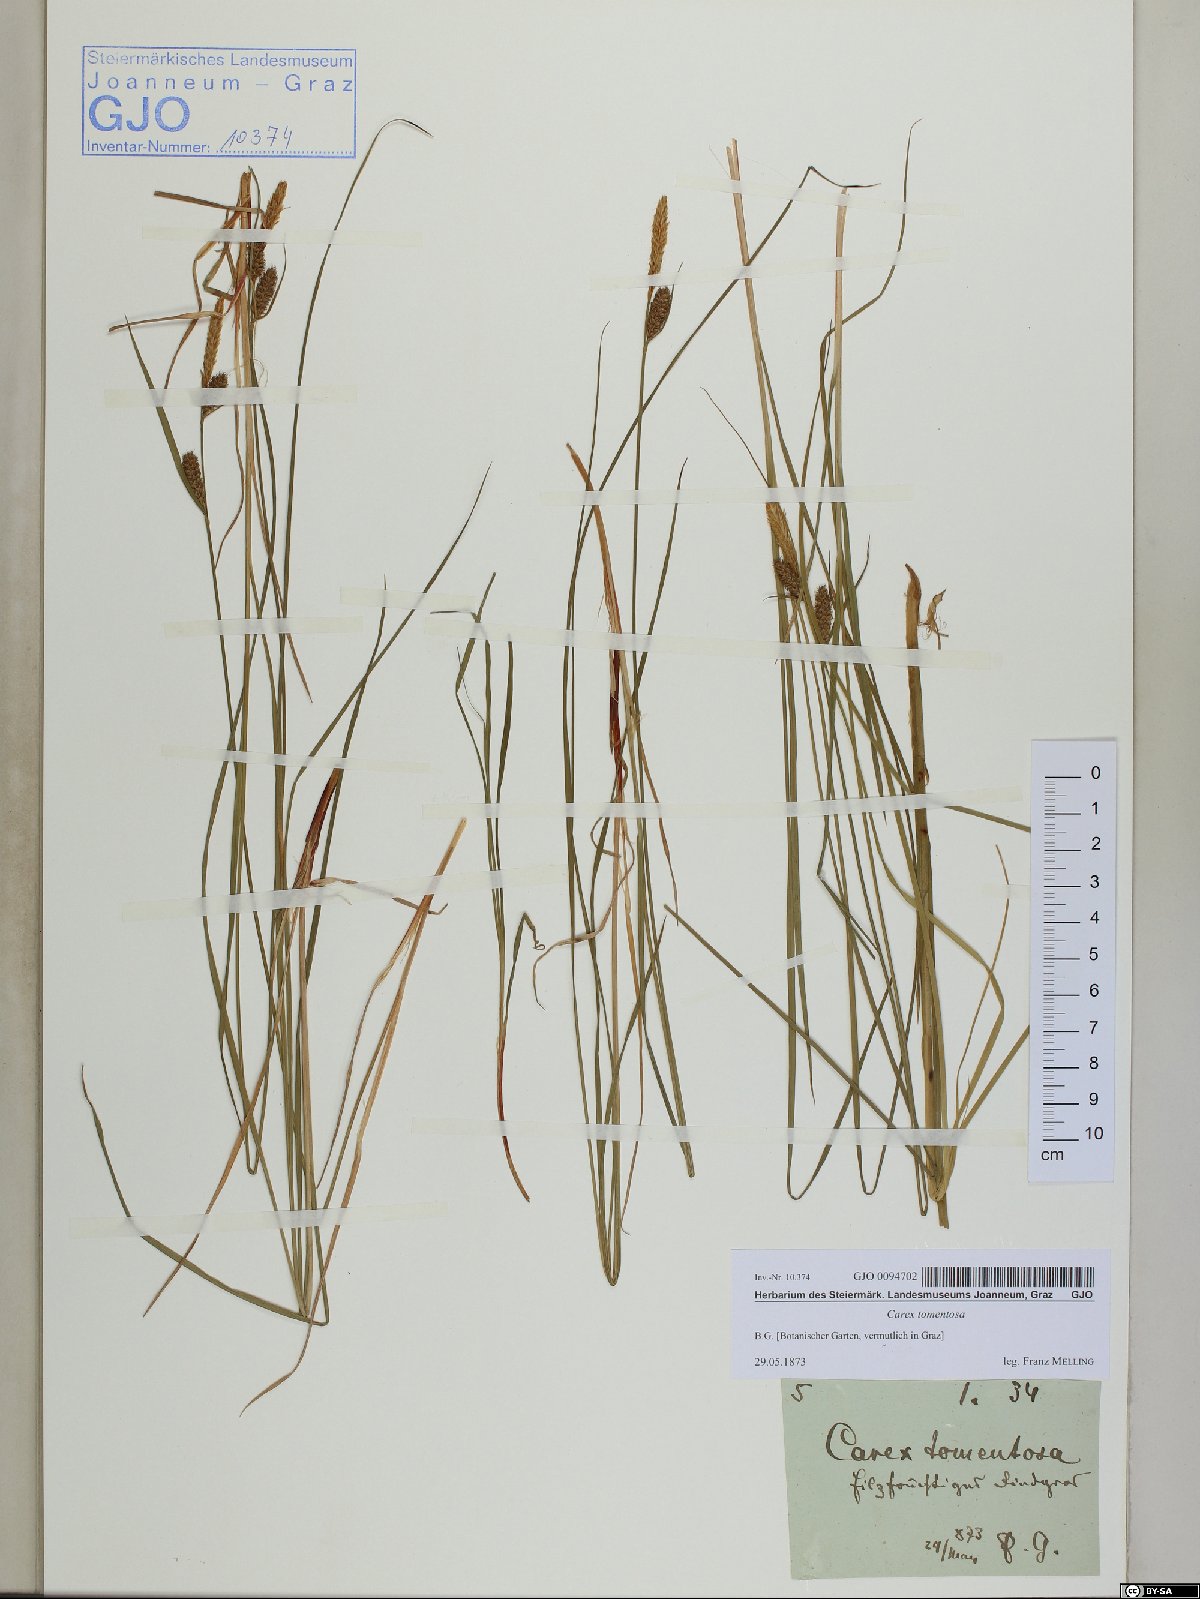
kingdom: Plantae
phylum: Tracheophyta
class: Liliopsida
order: Poales
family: Cyperaceae
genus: Carex
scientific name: Carex tomentosa
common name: Downy-fruited sedge
